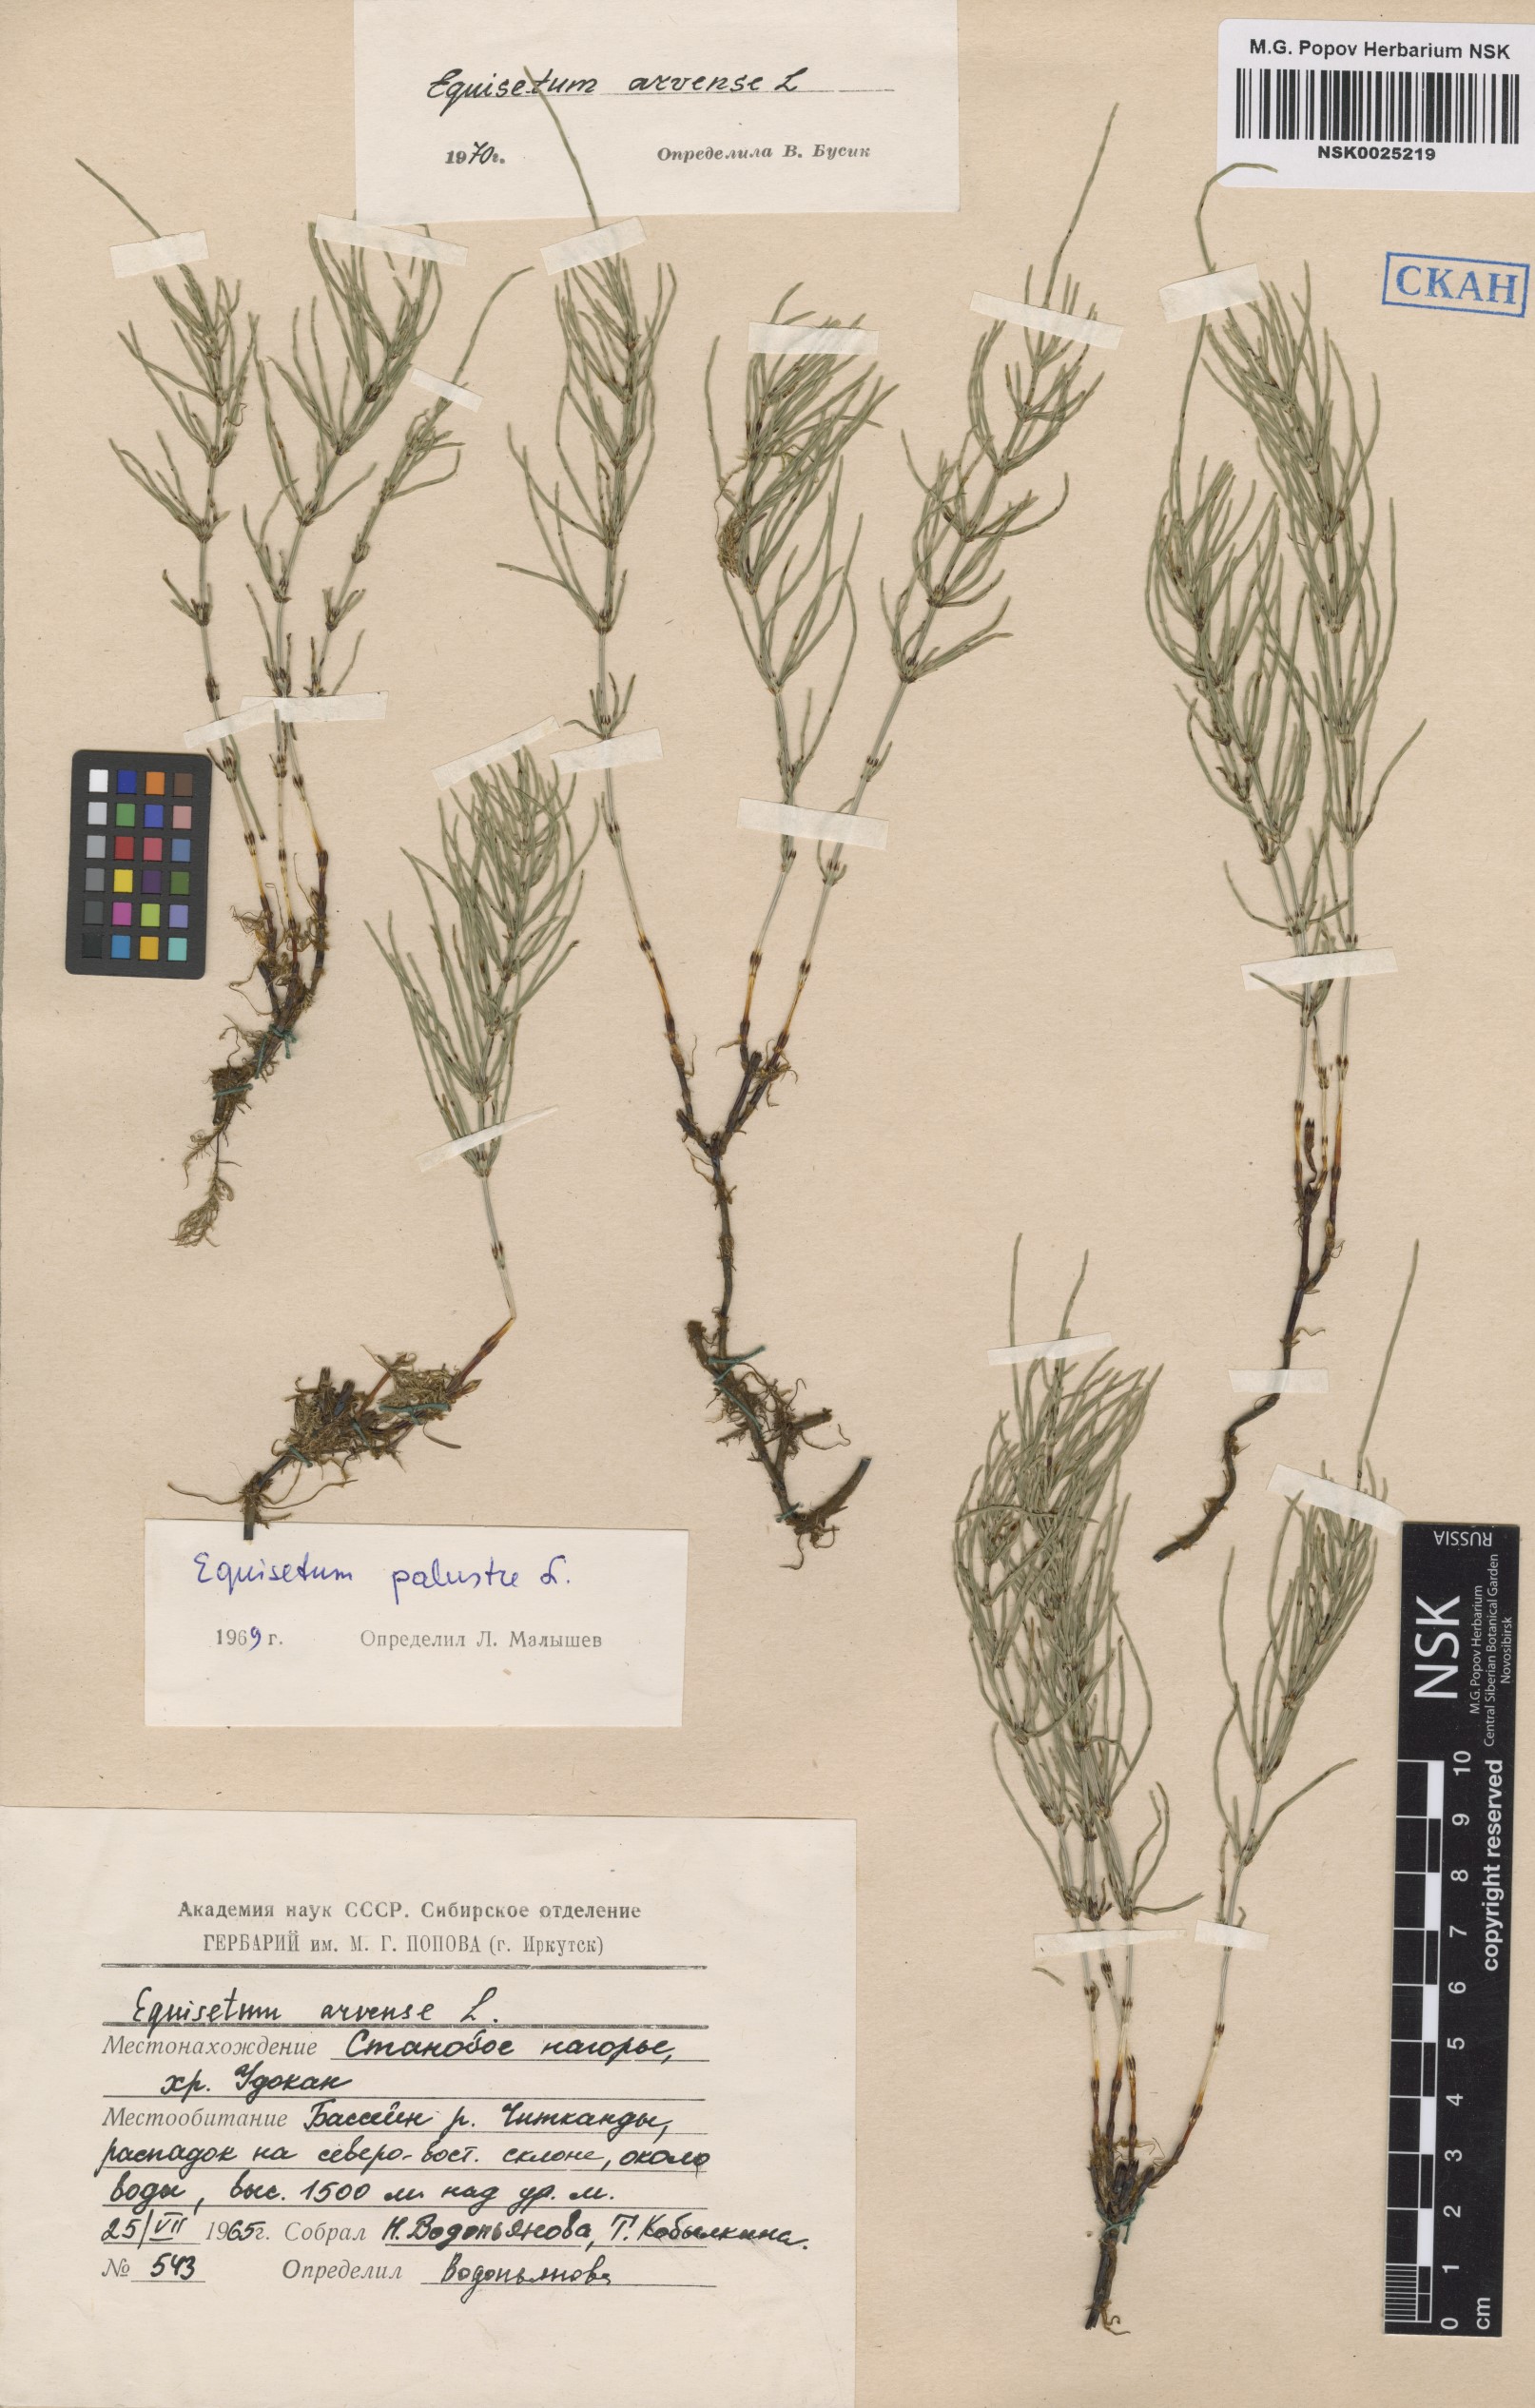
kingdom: Plantae
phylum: Tracheophyta
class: Polypodiopsida
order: Equisetales
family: Equisetaceae
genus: Equisetum
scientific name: Equisetum arvense
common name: Field horsetail
